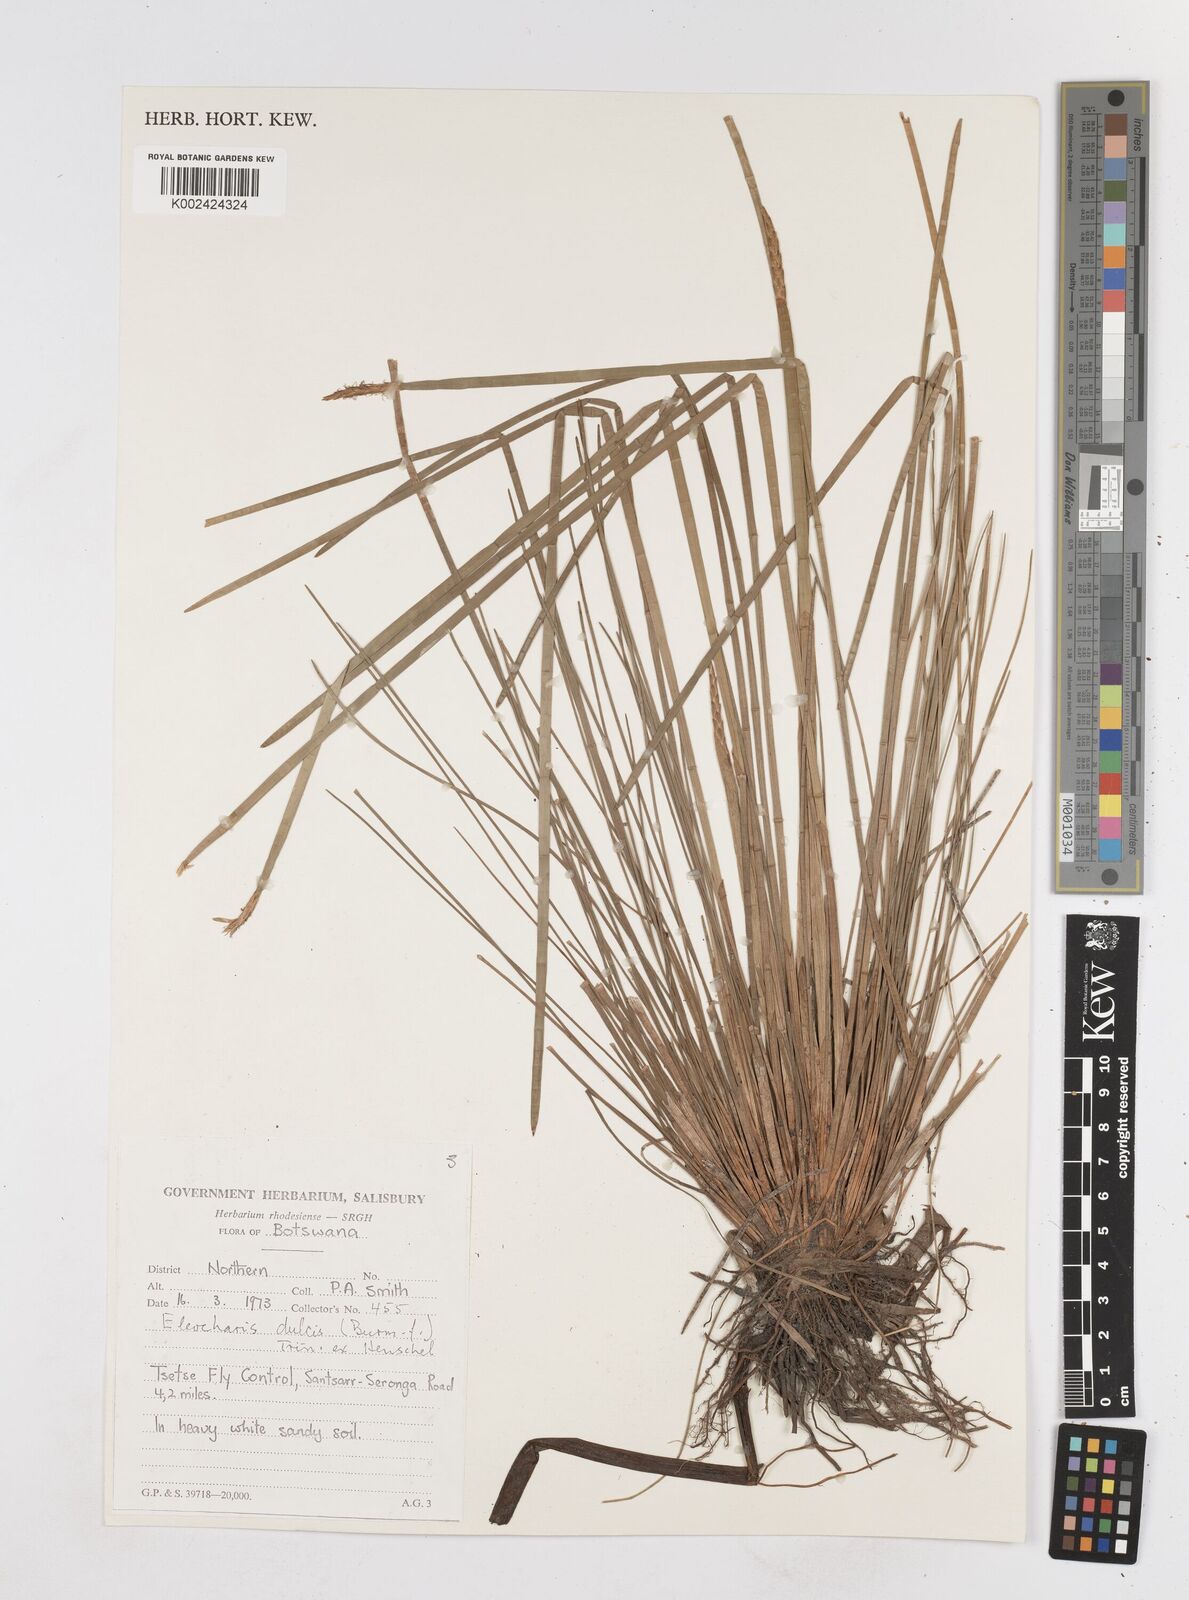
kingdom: Plantae
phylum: Tracheophyta
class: Liliopsida
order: Poales
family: Cyperaceae
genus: Eleocharis
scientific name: Eleocharis dulcis
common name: Chinese water chestnut
